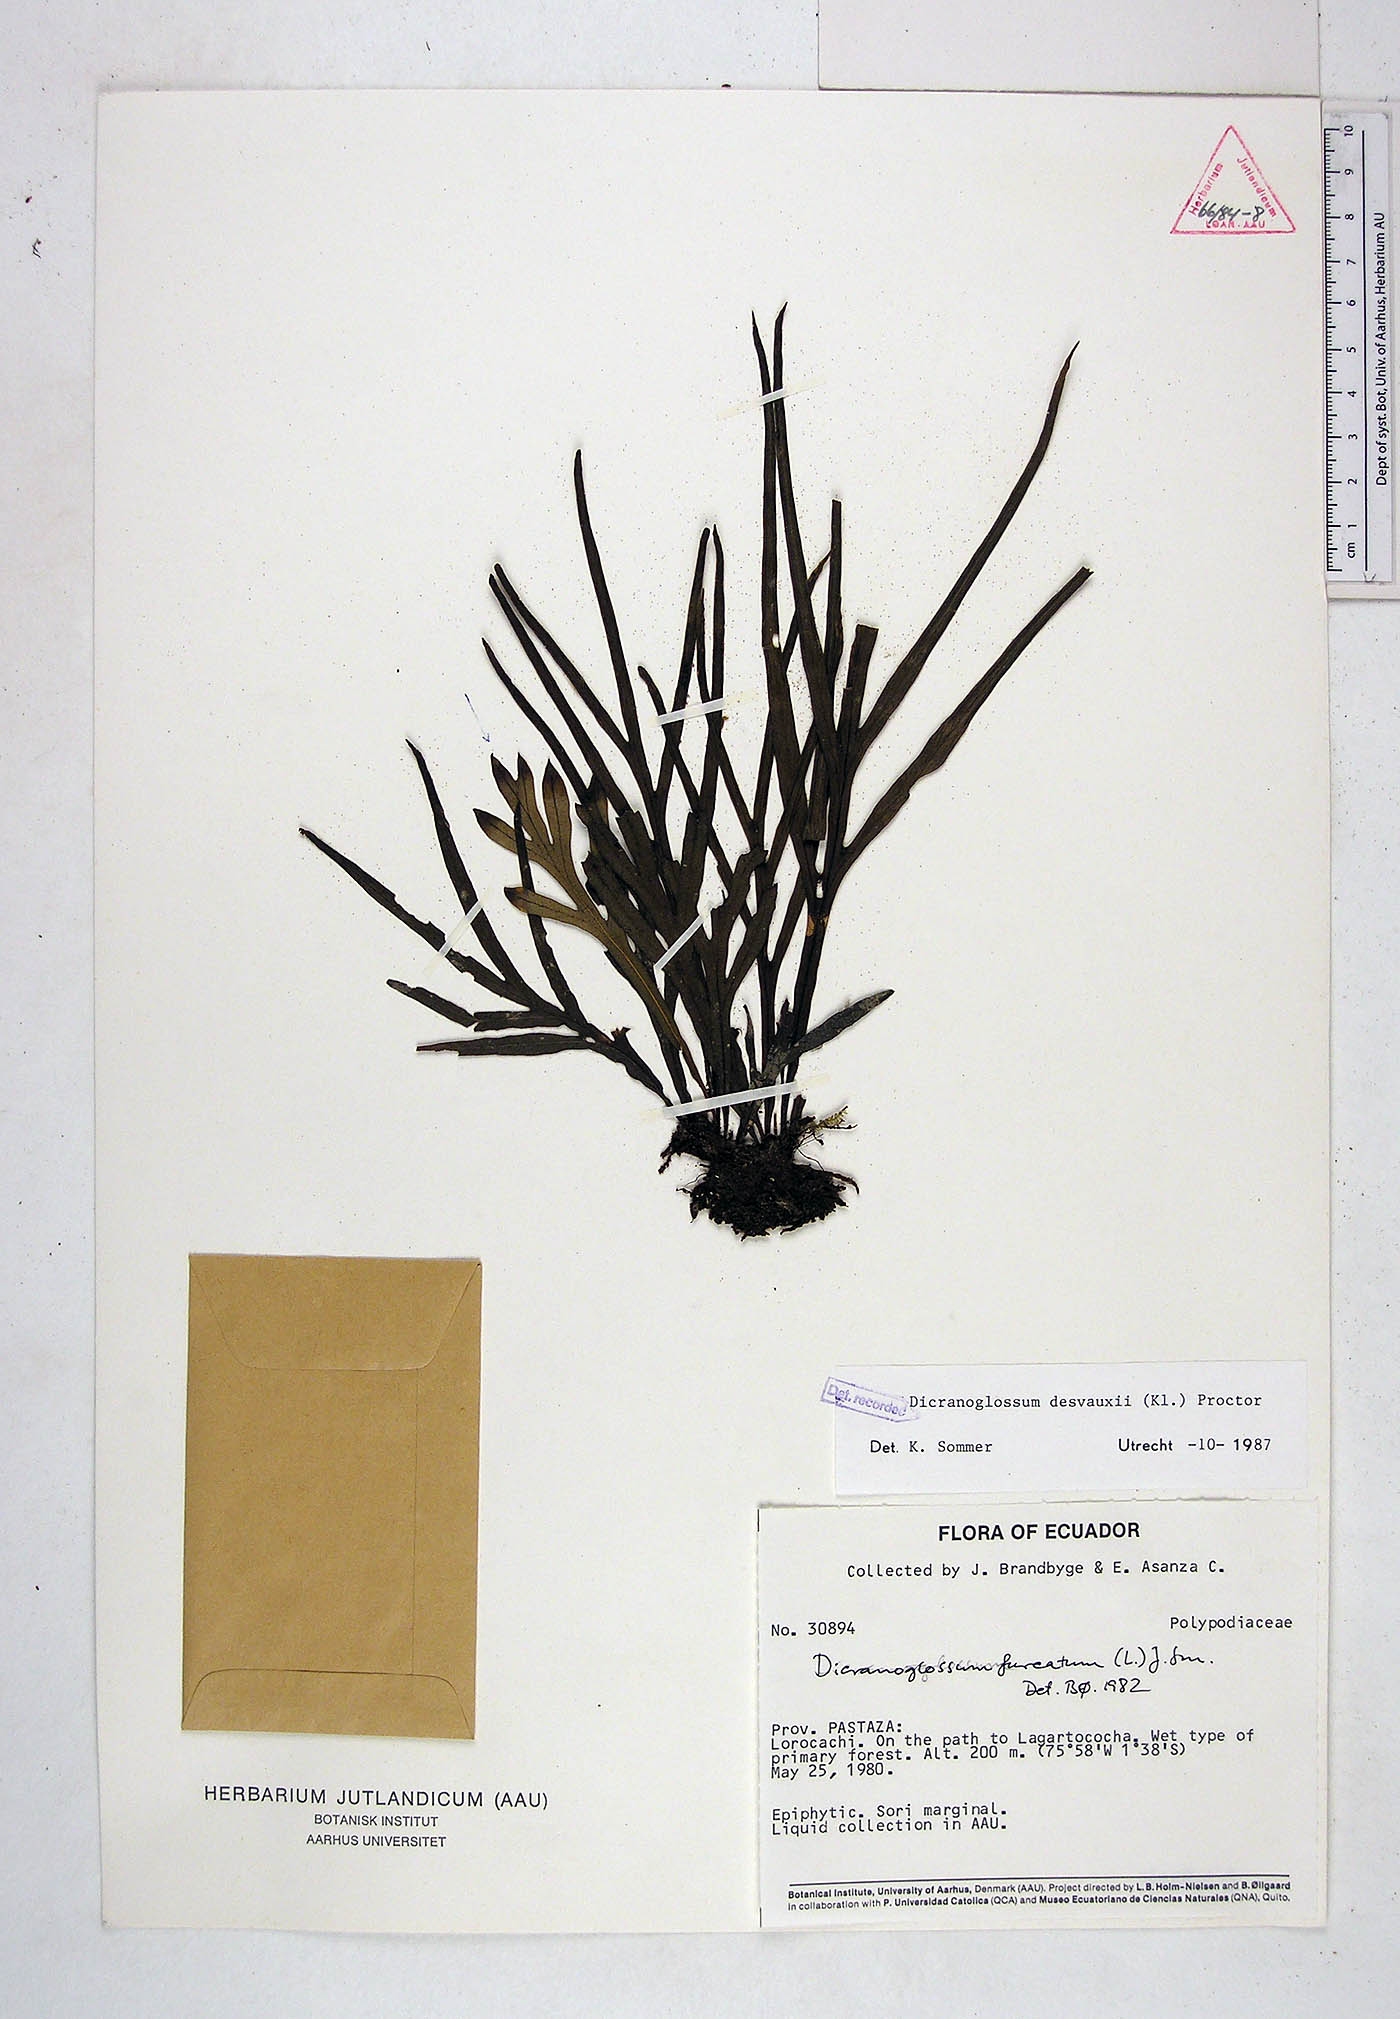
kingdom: Plantae
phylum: Tracheophyta
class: Polypodiopsida
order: Polypodiales
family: Polypodiaceae
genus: Pleopeltis
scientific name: Pleopeltis desvauxii
